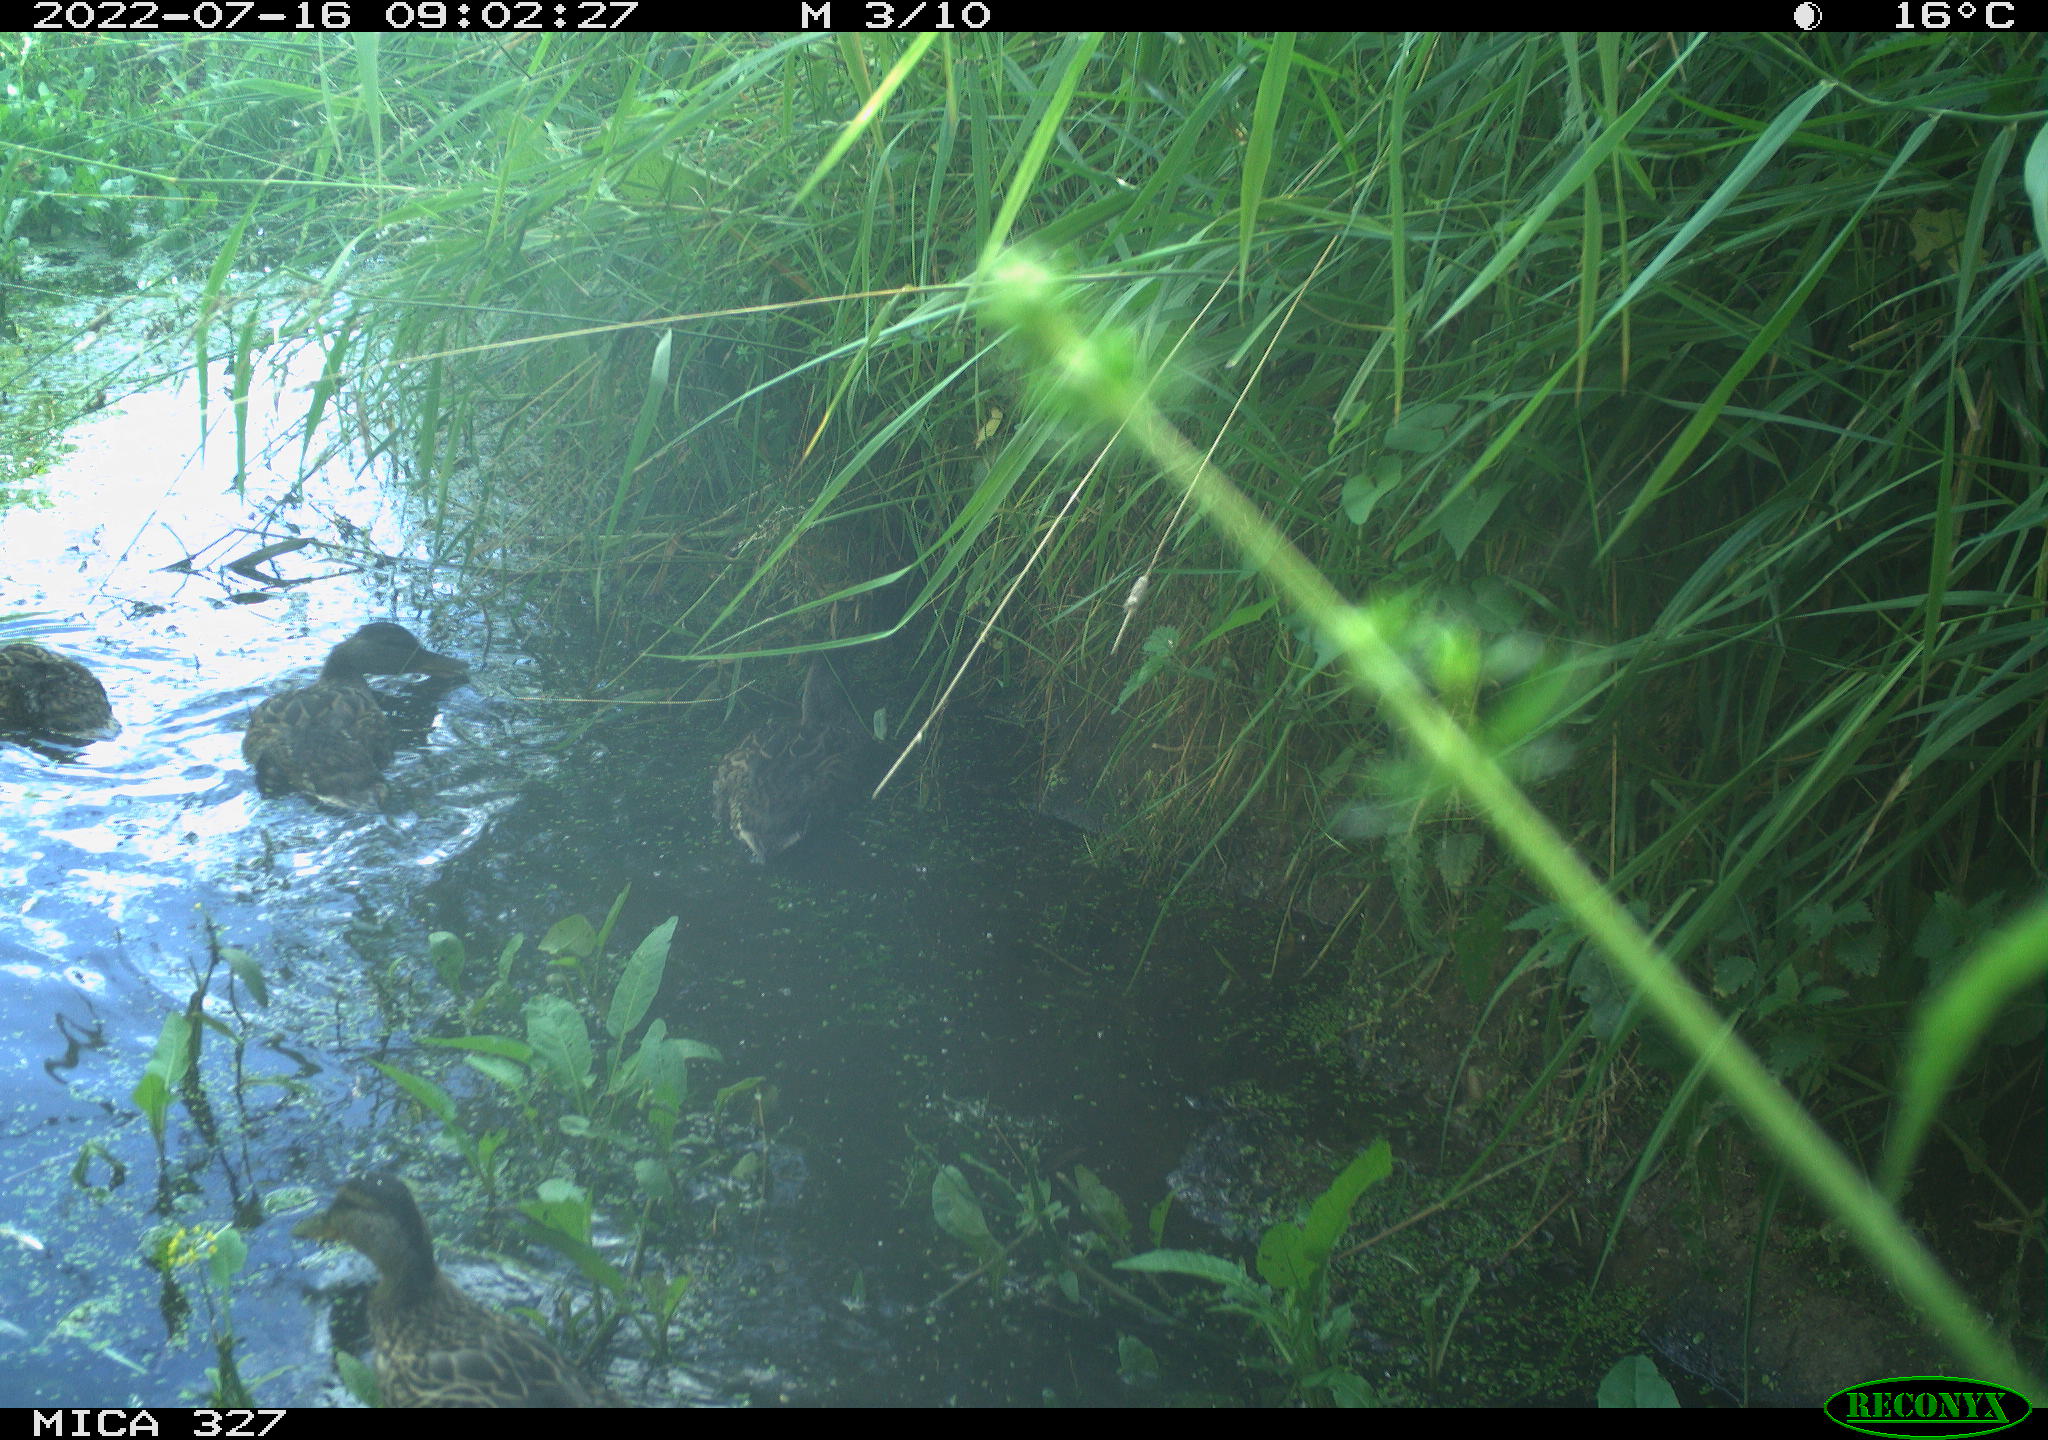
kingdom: Animalia
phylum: Chordata
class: Aves
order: Anseriformes
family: Anatidae
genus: Anas
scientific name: Anas
